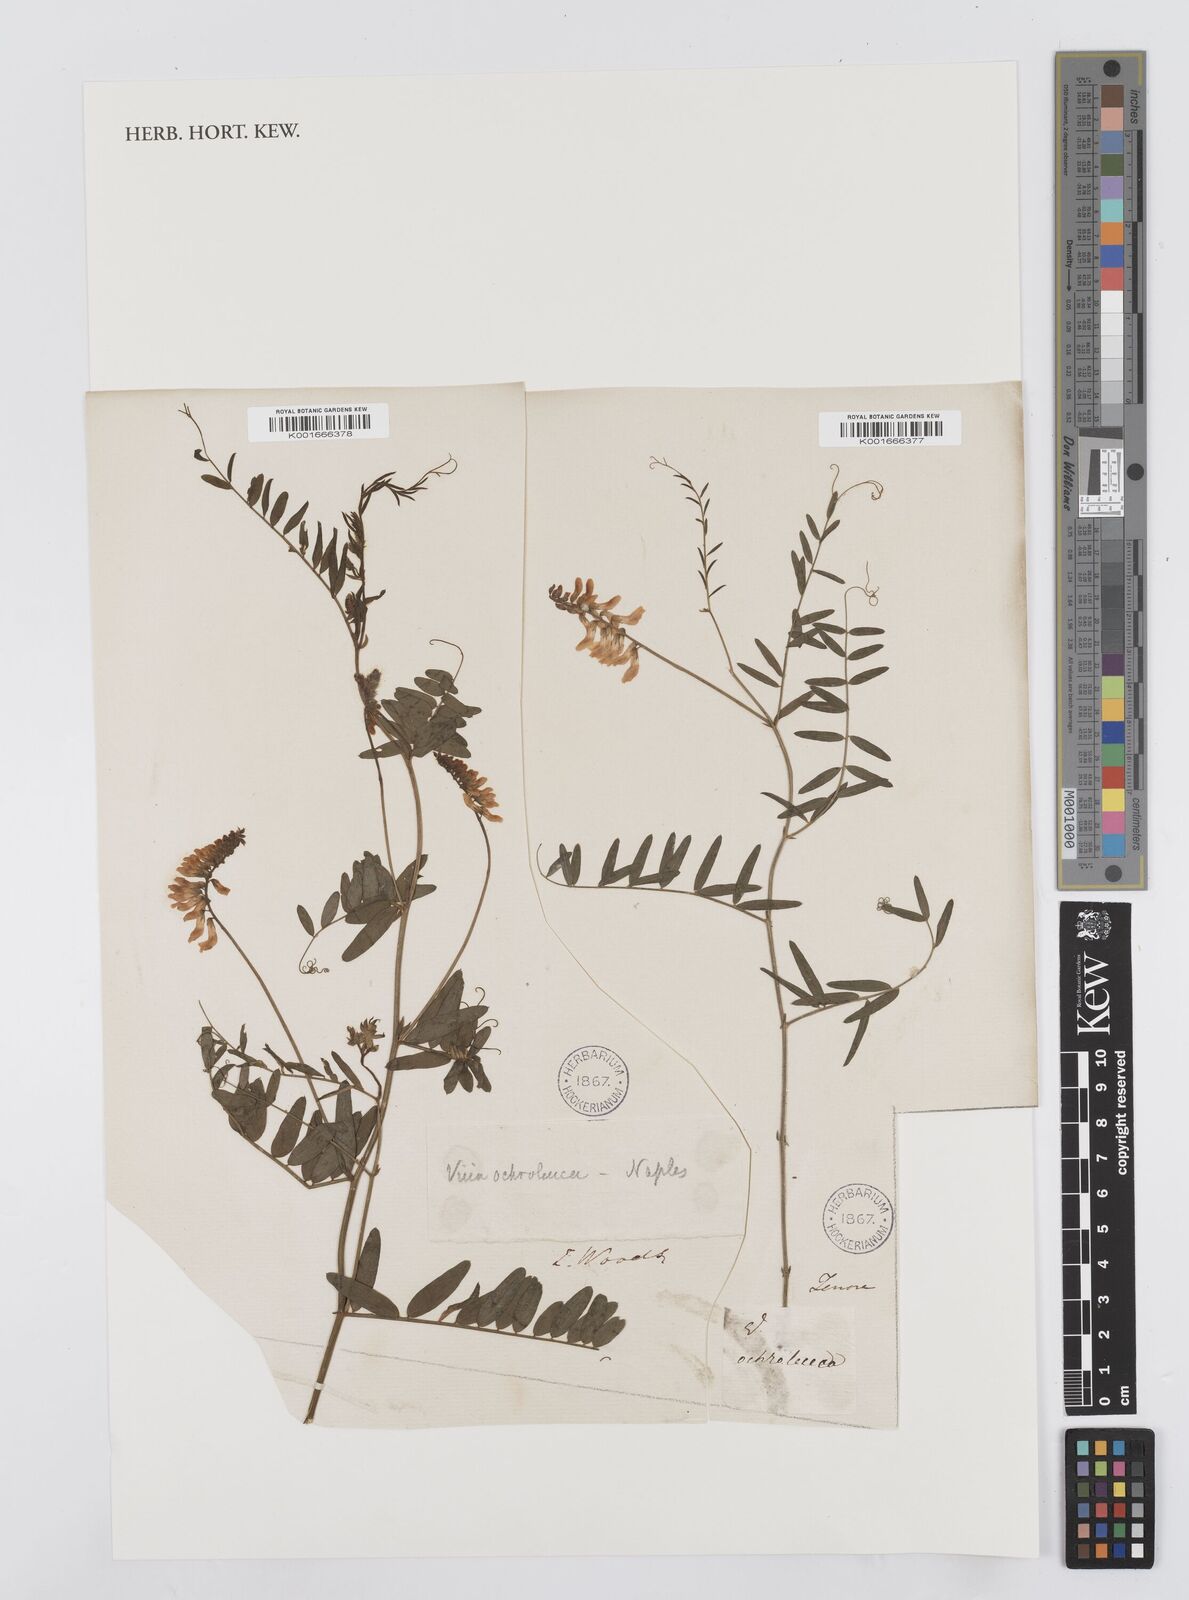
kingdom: Plantae
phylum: Tracheophyta
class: Magnoliopsida
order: Fabales
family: Fabaceae
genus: Vicia
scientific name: Vicia pisiformis
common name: Pale-flower vetch
